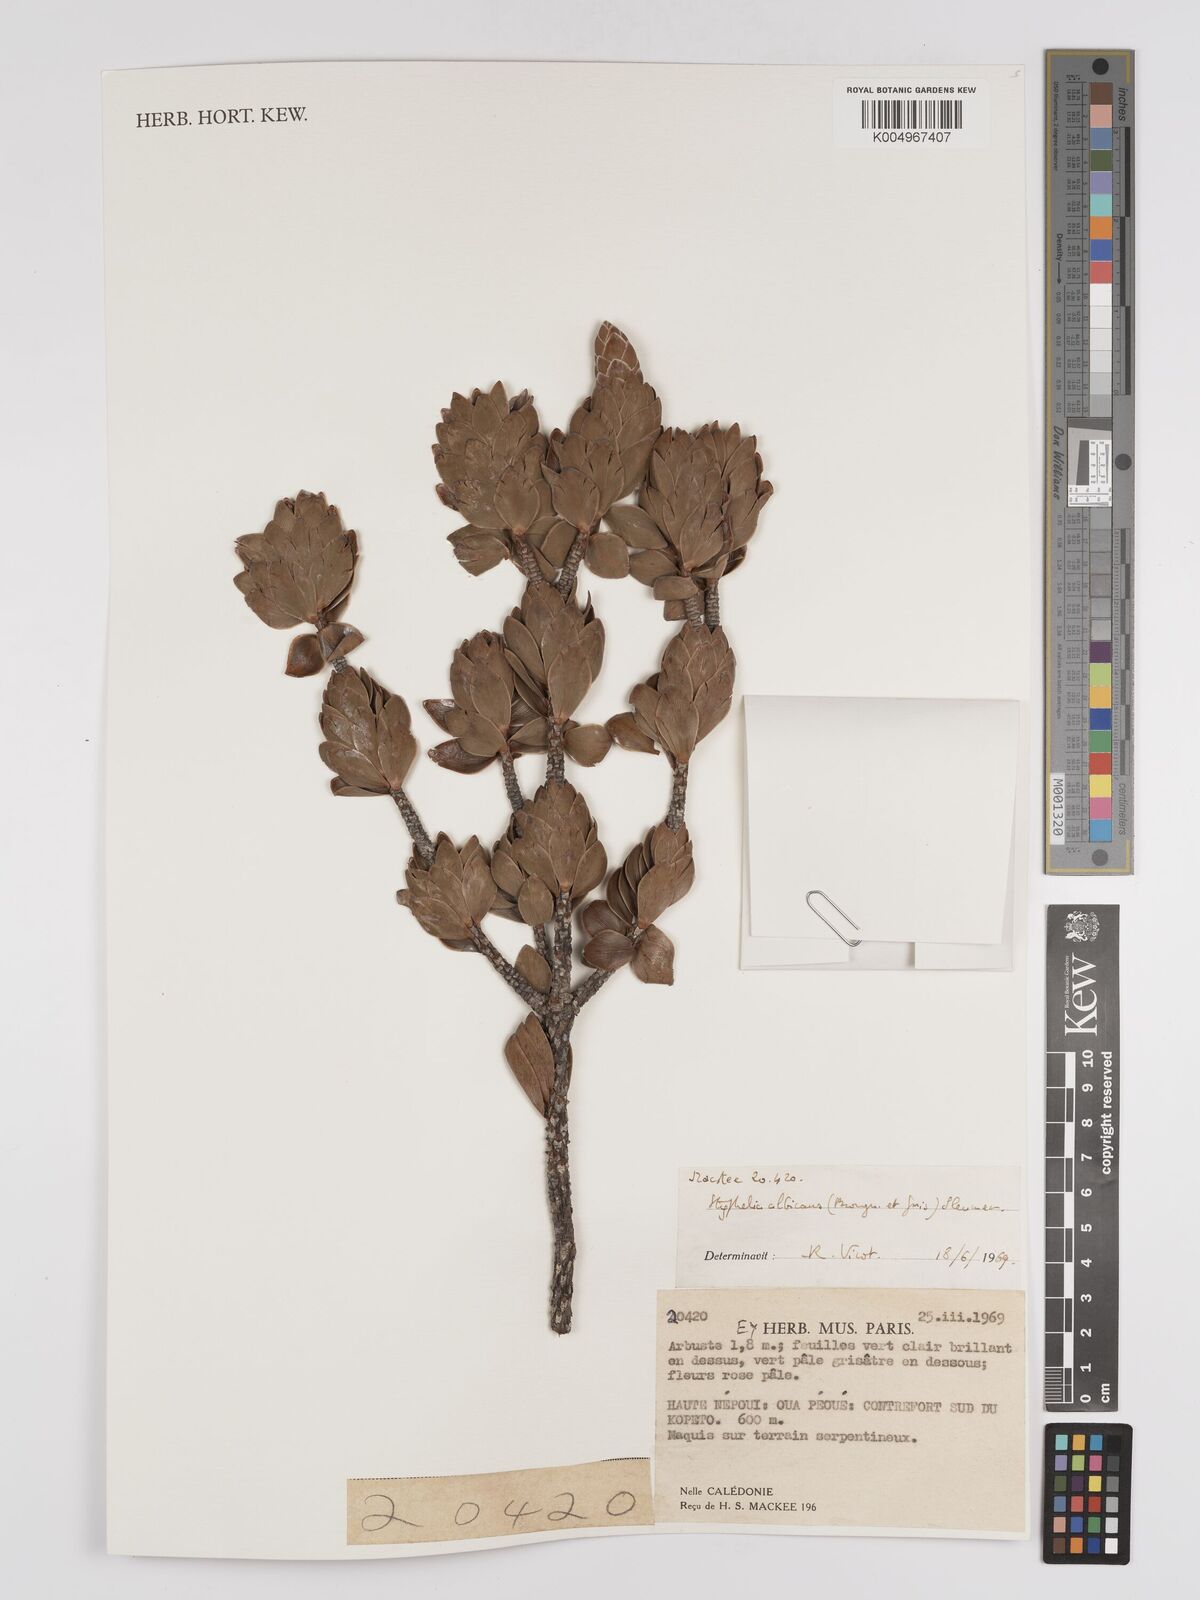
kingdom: Plantae
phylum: Tracheophyta
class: Magnoliopsida
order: Ericales
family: Ericaceae
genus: Cyathopsis
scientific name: Cyathopsis albicans
